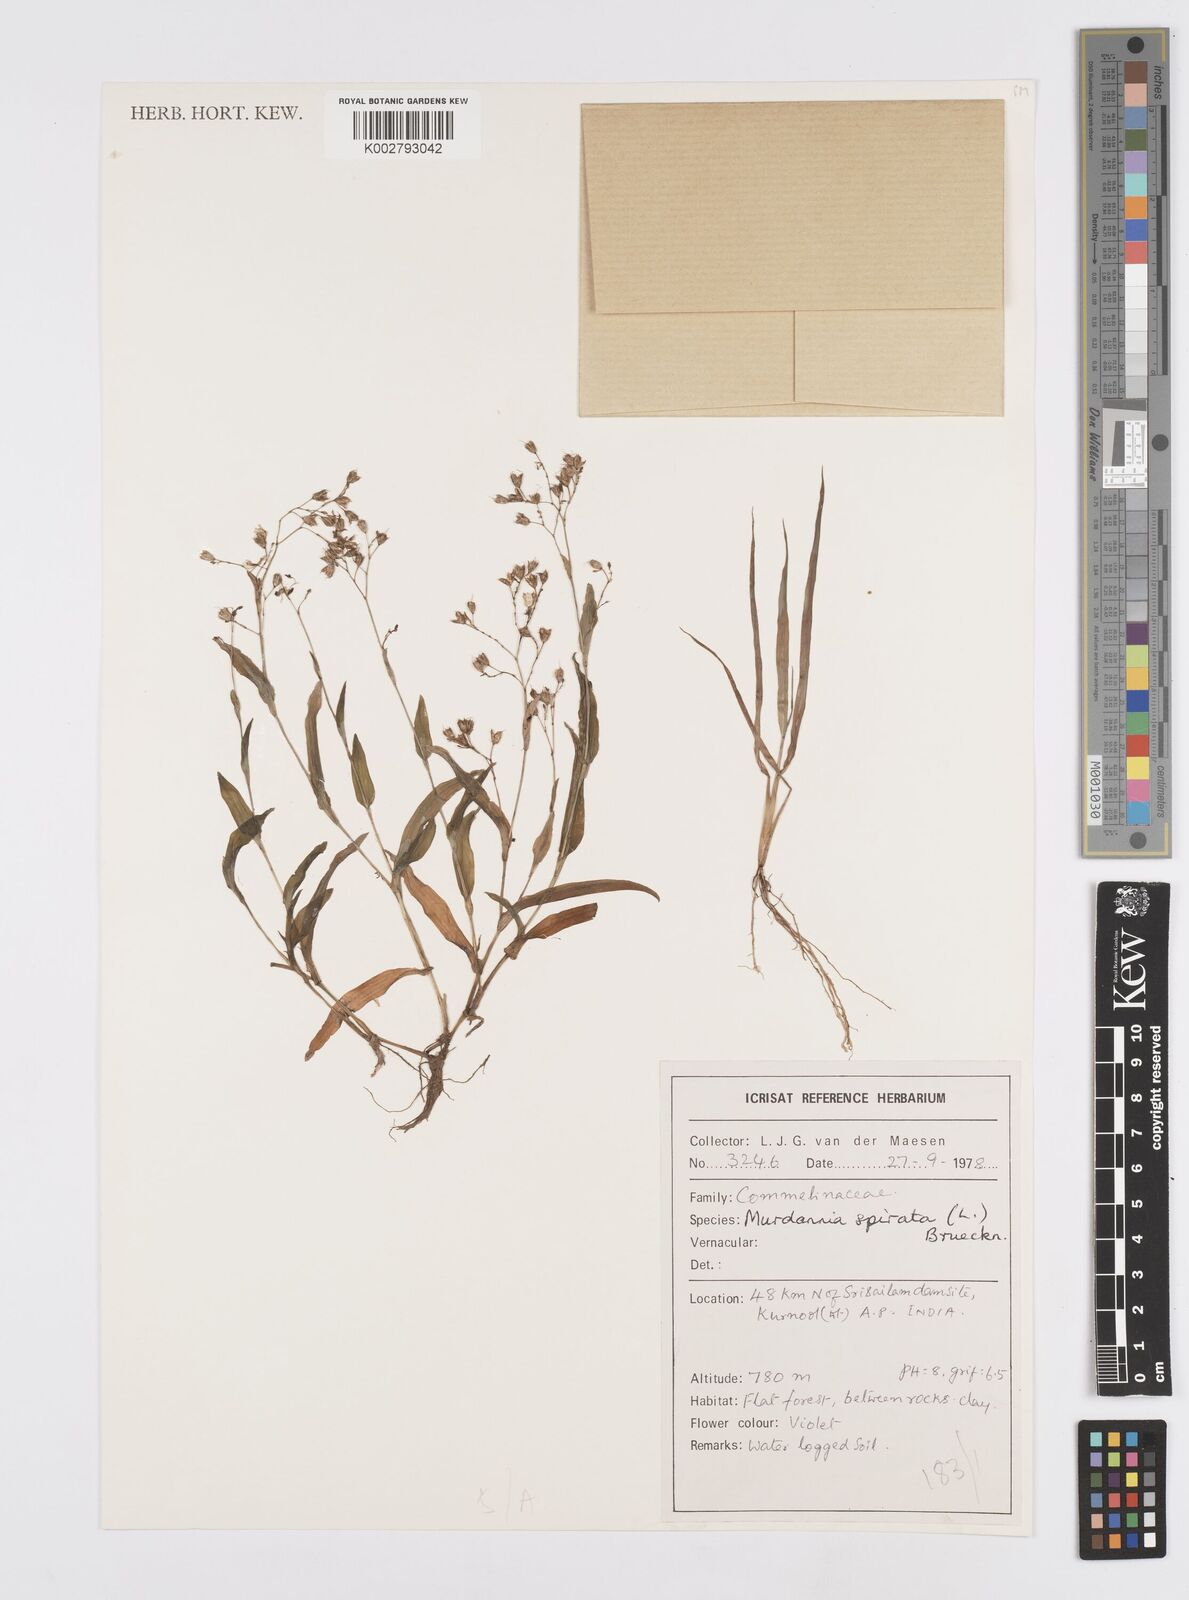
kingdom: Plantae
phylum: Tracheophyta
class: Liliopsida
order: Commelinales
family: Commelinaceae
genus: Murdannia
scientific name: Murdannia spirata
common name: Asiatic dewflower
